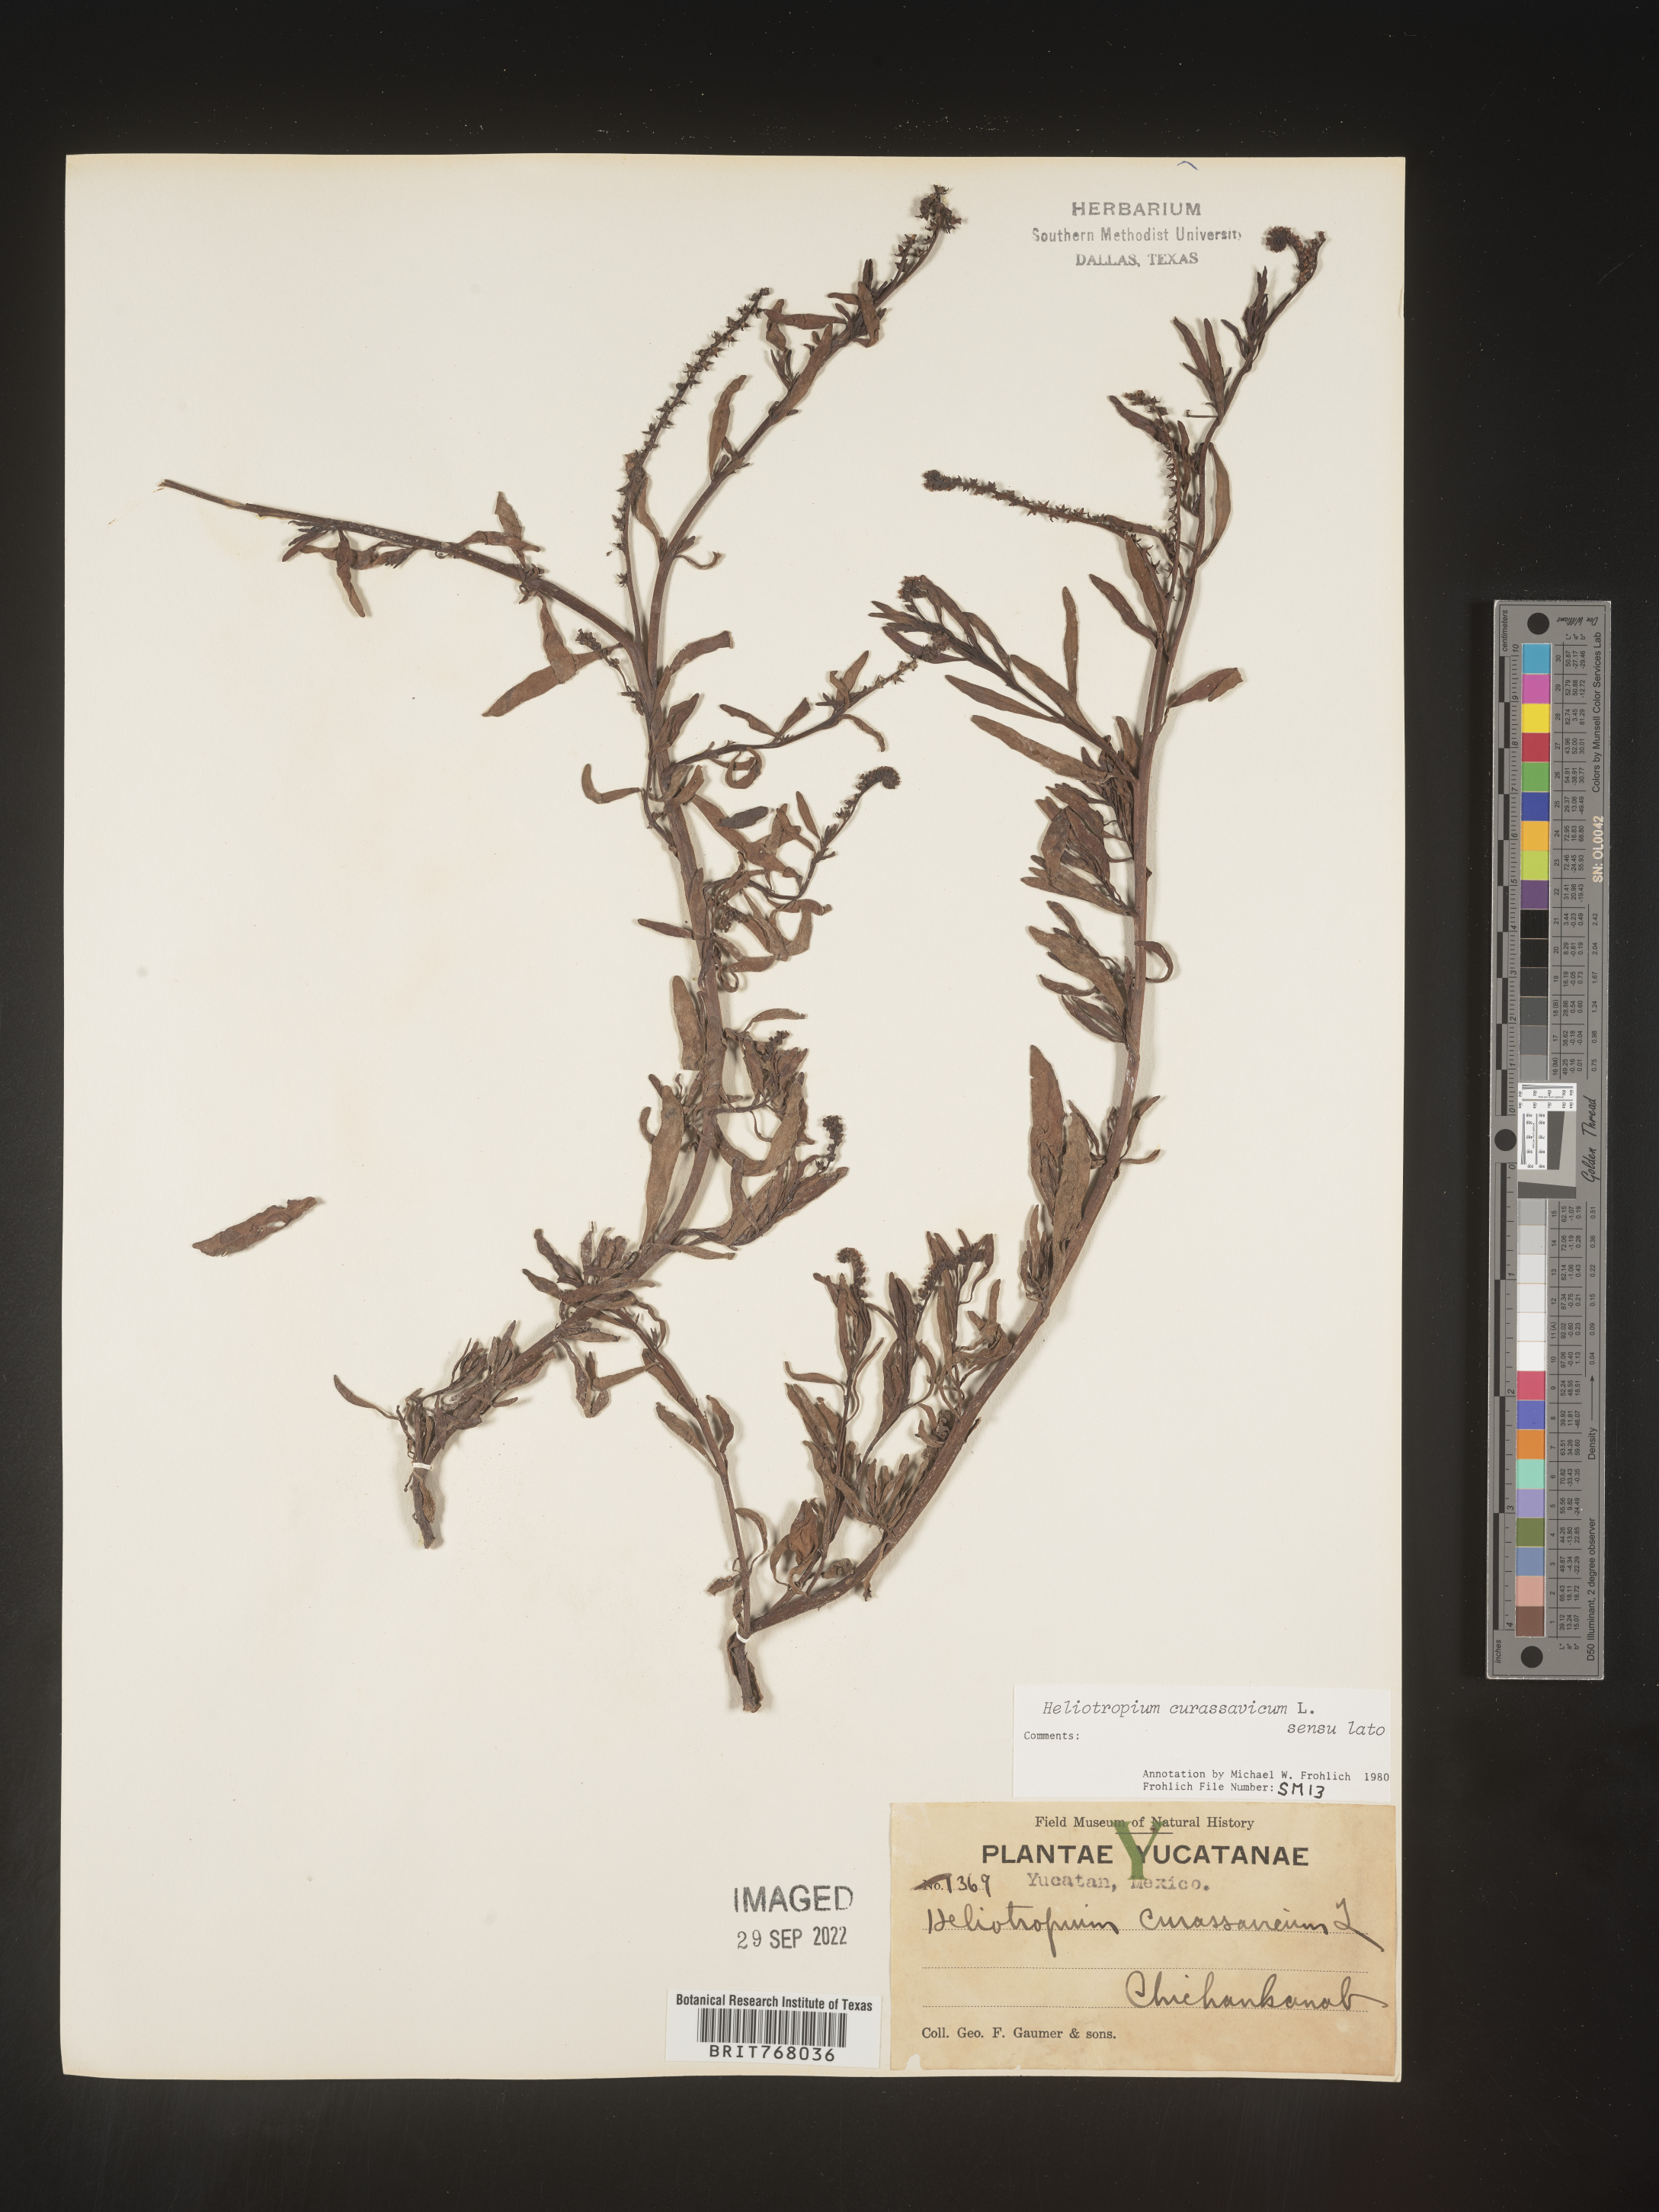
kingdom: Plantae
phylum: Tracheophyta
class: Magnoliopsida
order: Boraginales
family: Heliotropiaceae
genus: Heliotropium
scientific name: Heliotropium curassavicum
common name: Seaside heliotrope
